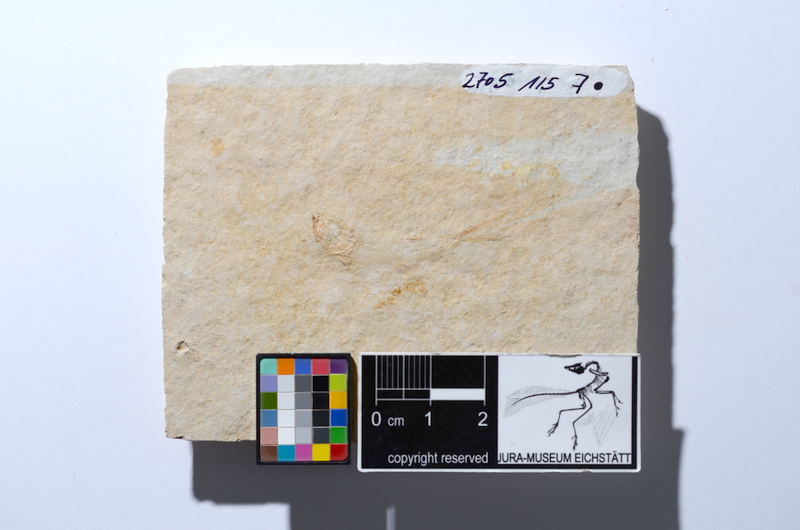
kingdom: Animalia
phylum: Chordata
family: Ascalaboidae
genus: Tharsis
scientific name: Tharsis dubius
